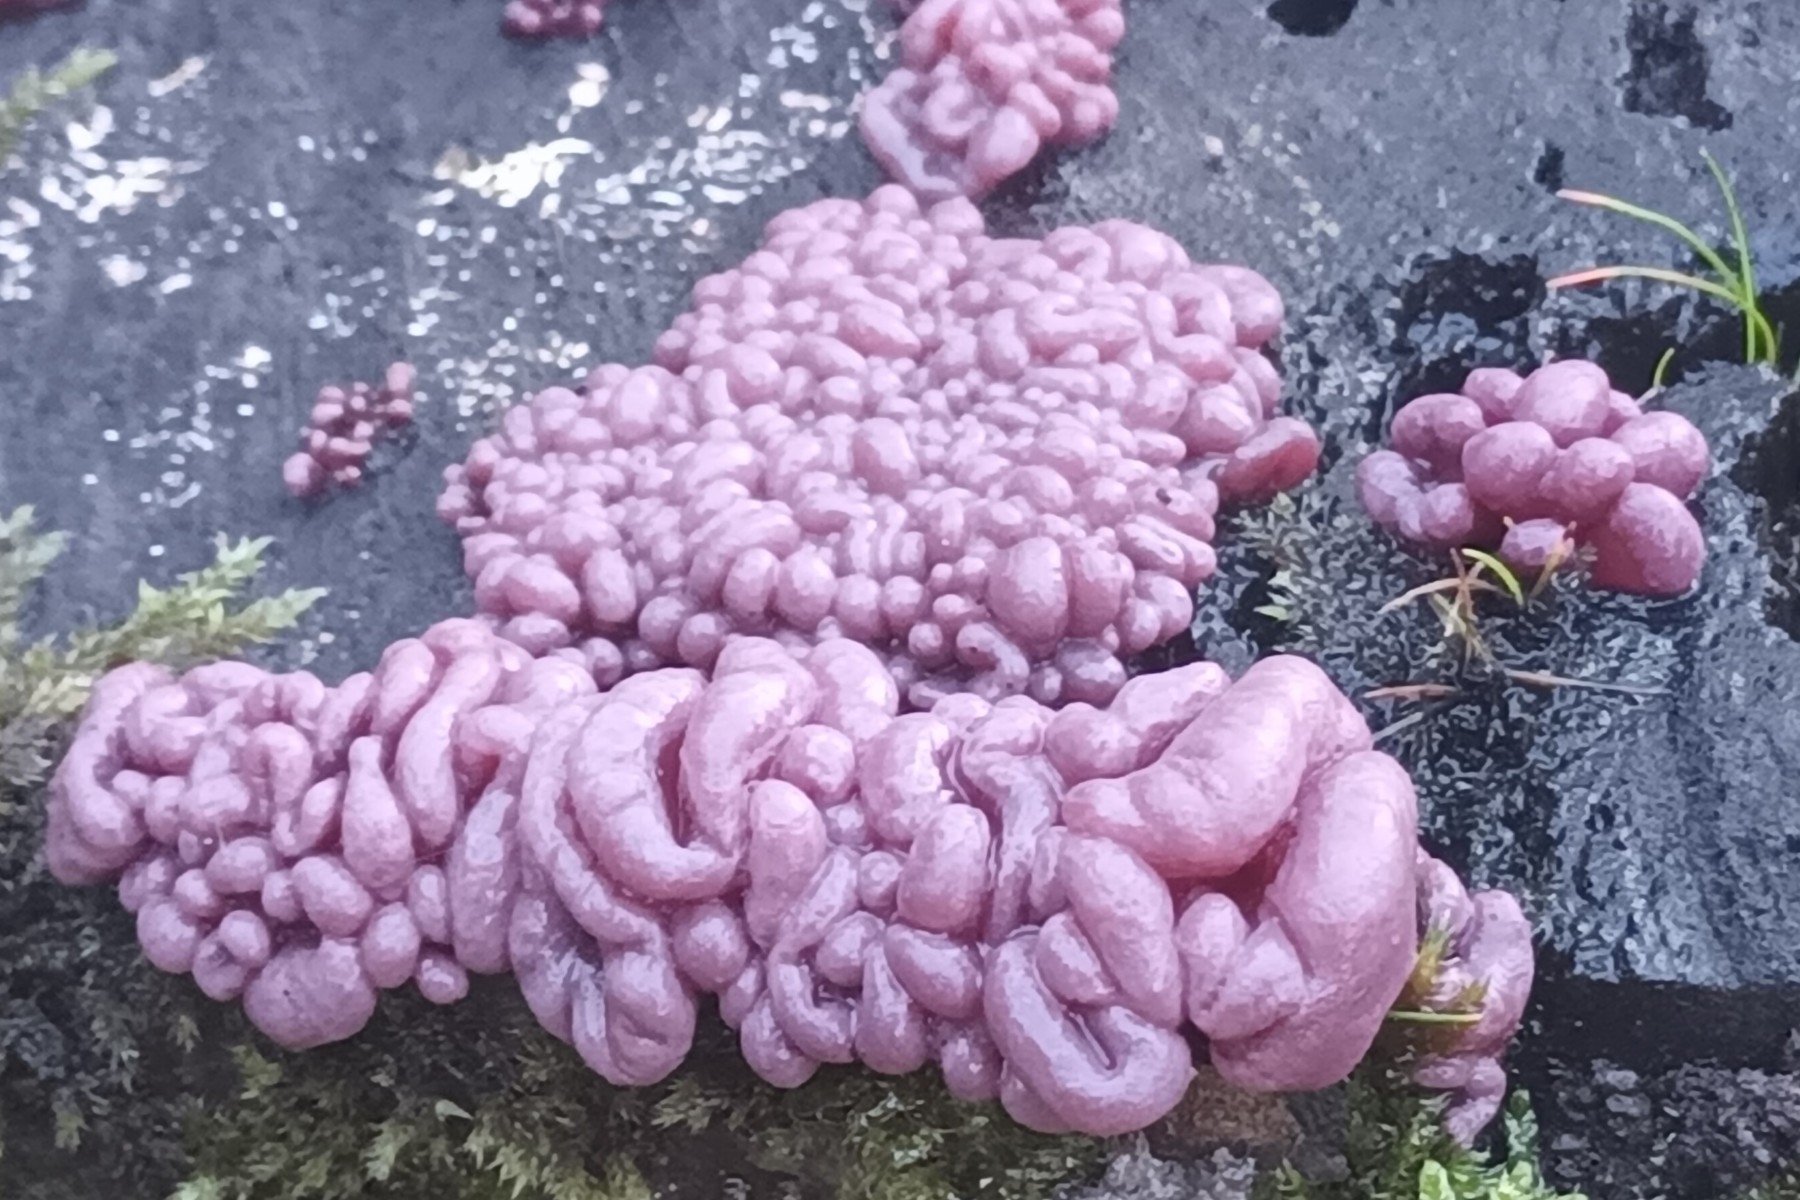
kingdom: Fungi
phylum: Ascomycota
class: Leotiomycetes
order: Helotiales
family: Gelatinodiscaceae
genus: Ascocoryne
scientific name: Ascocoryne sarcoides
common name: rødlilla sejskive
